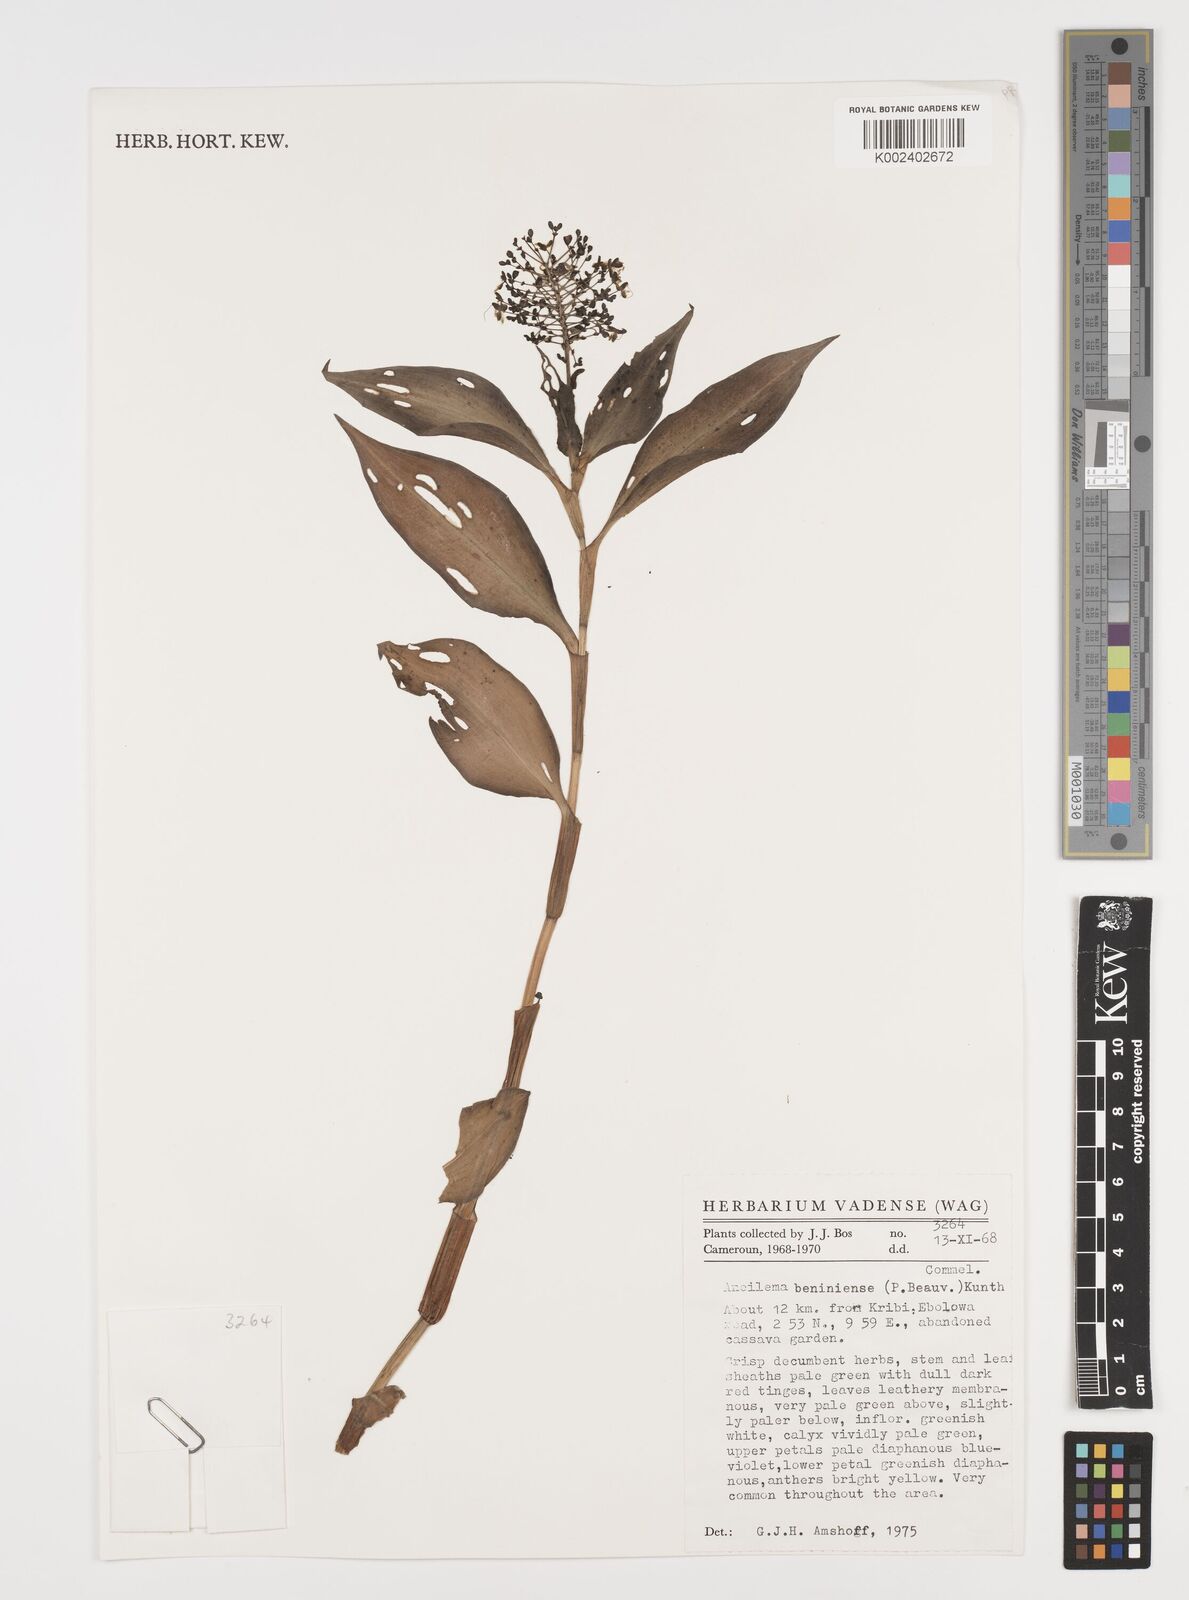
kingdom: Plantae
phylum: Tracheophyta
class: Liliopsida
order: Commelinales
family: Commelinaceae
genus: Aneilema
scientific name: Aneilema beniniense
